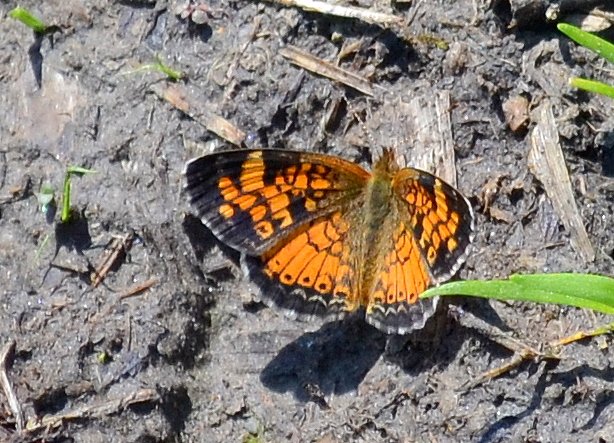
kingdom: Animalia
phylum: Arthropoda
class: Insecta
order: Lepidoptera
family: Nymphalidae
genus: Phyciodes
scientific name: Phyciodes tharos
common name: Pearl Crescent
